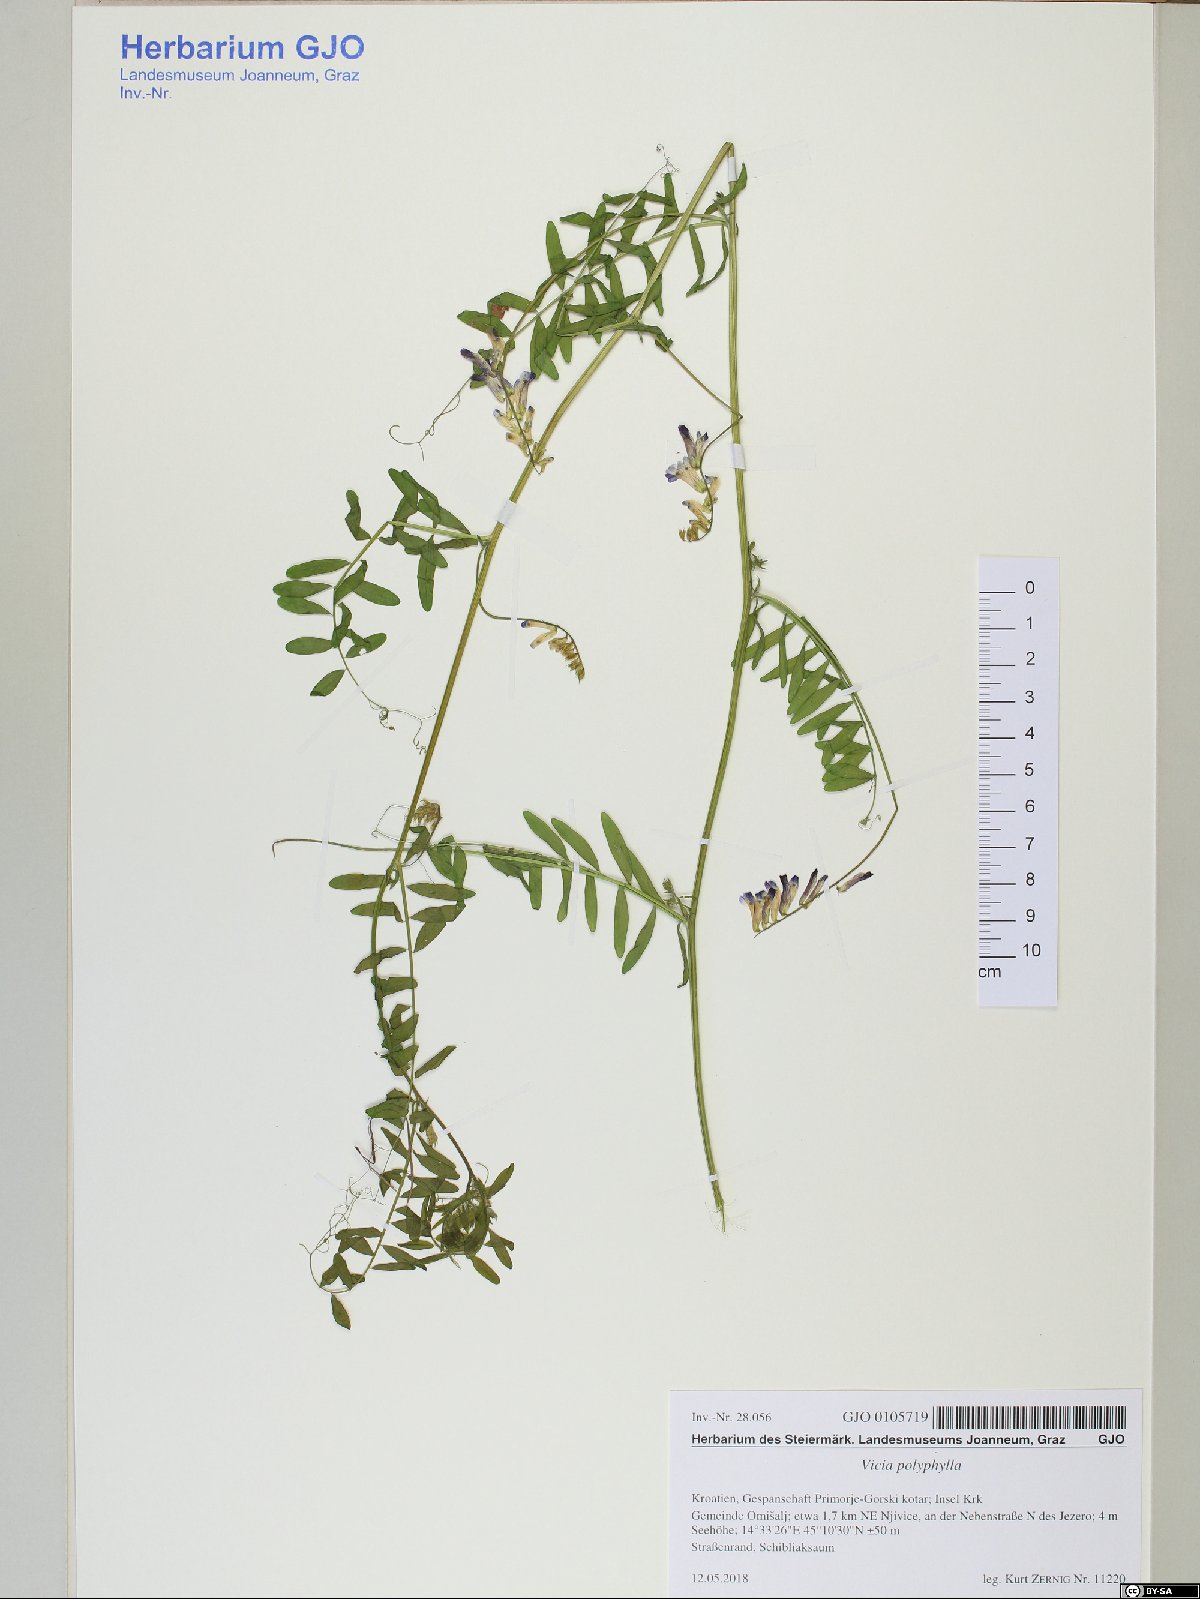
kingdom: Plantae
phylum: Tracheophyta
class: Magnoliopsida
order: Fabales
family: Fabaceae
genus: Vicia
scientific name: Vicia tenuifolia
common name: Fine-leaved vetch
